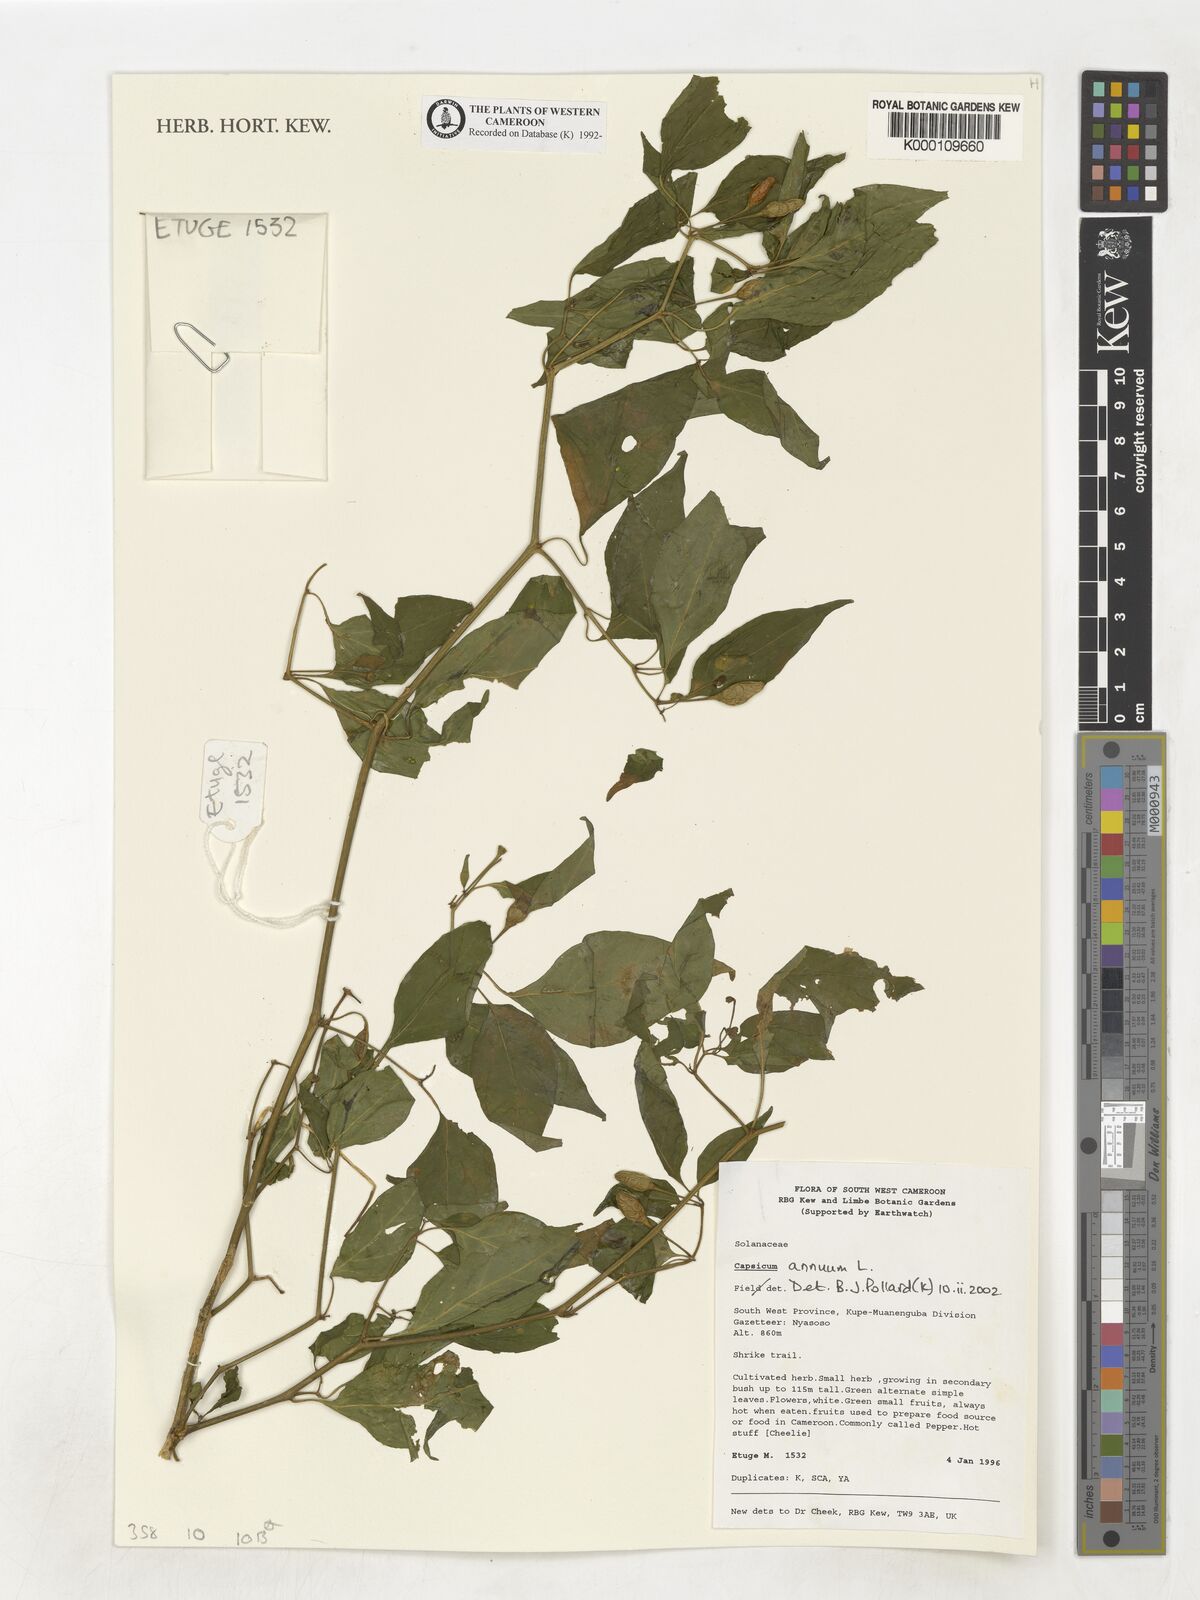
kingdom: Plantae
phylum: Tracheophyta
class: Magnoliopsida
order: Solanales
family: Solanaceae
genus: Capsicum
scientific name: Capsicum annuum
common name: Sweet pepper
